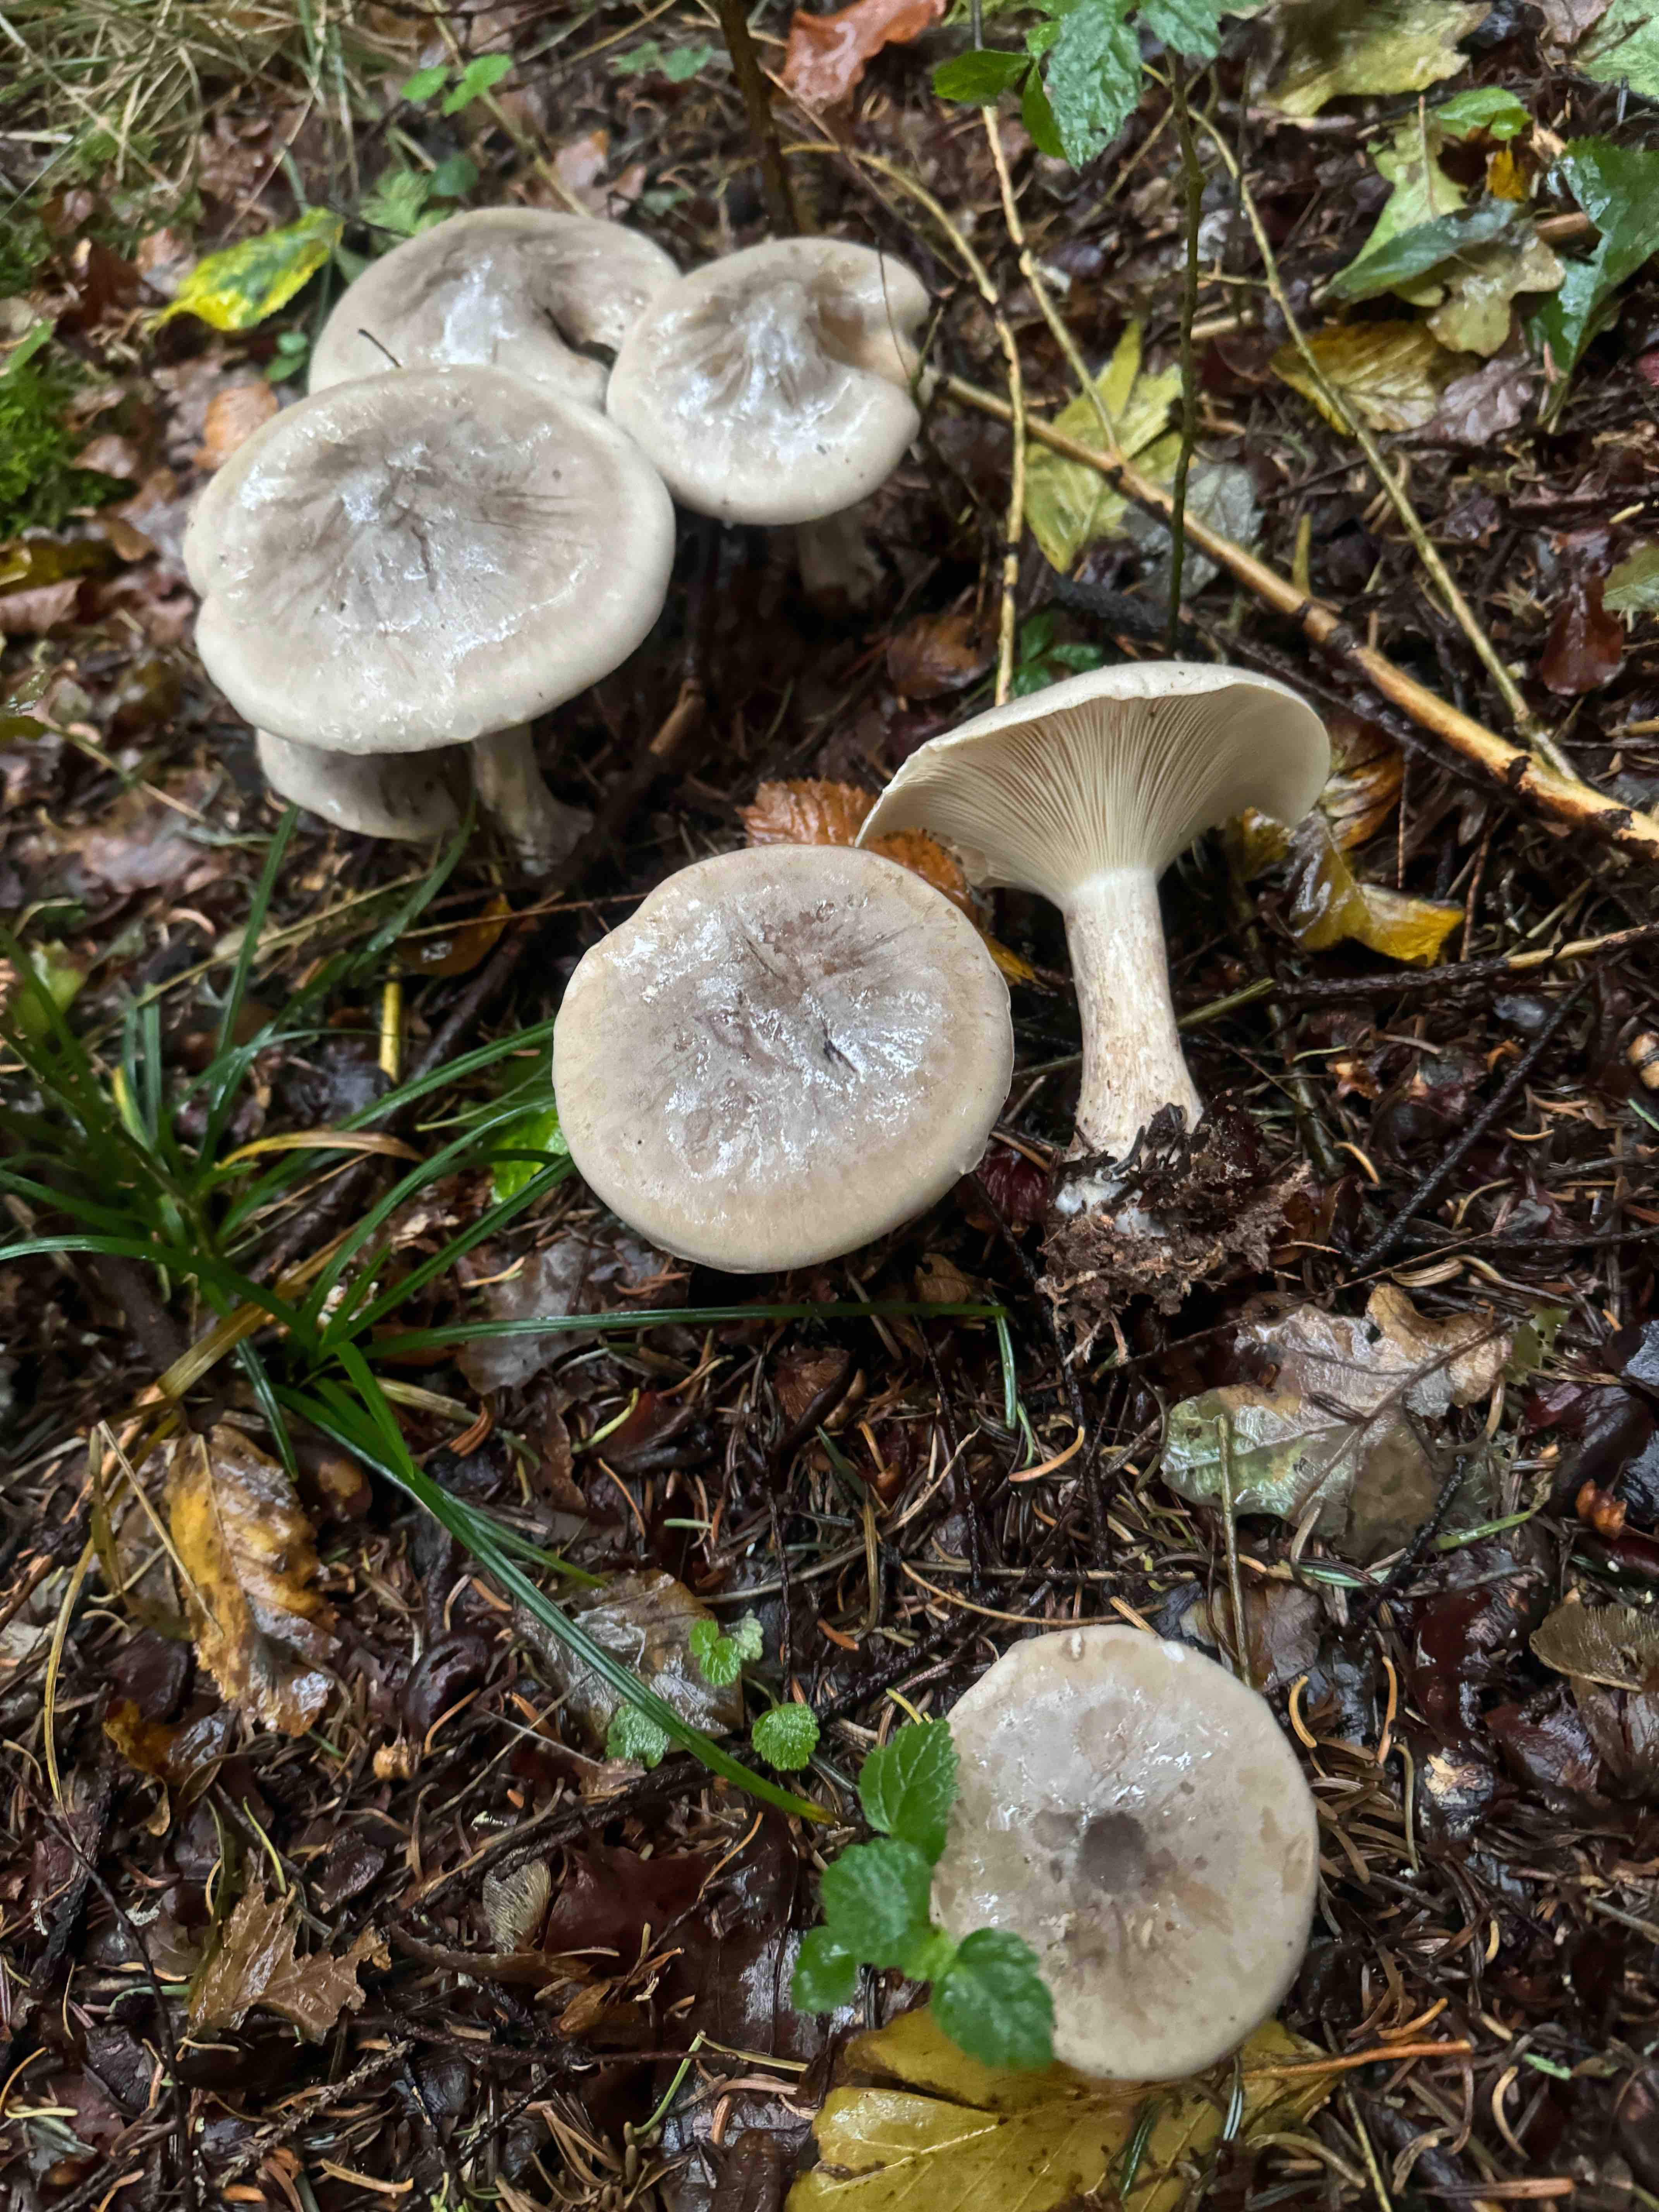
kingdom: Fungi
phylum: Basidiomycota
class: Agaricomycetes
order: Agaricales
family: Tricholomataceae
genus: Clitocybe
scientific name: Clitocybe nebularis
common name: tåge-tragthat
